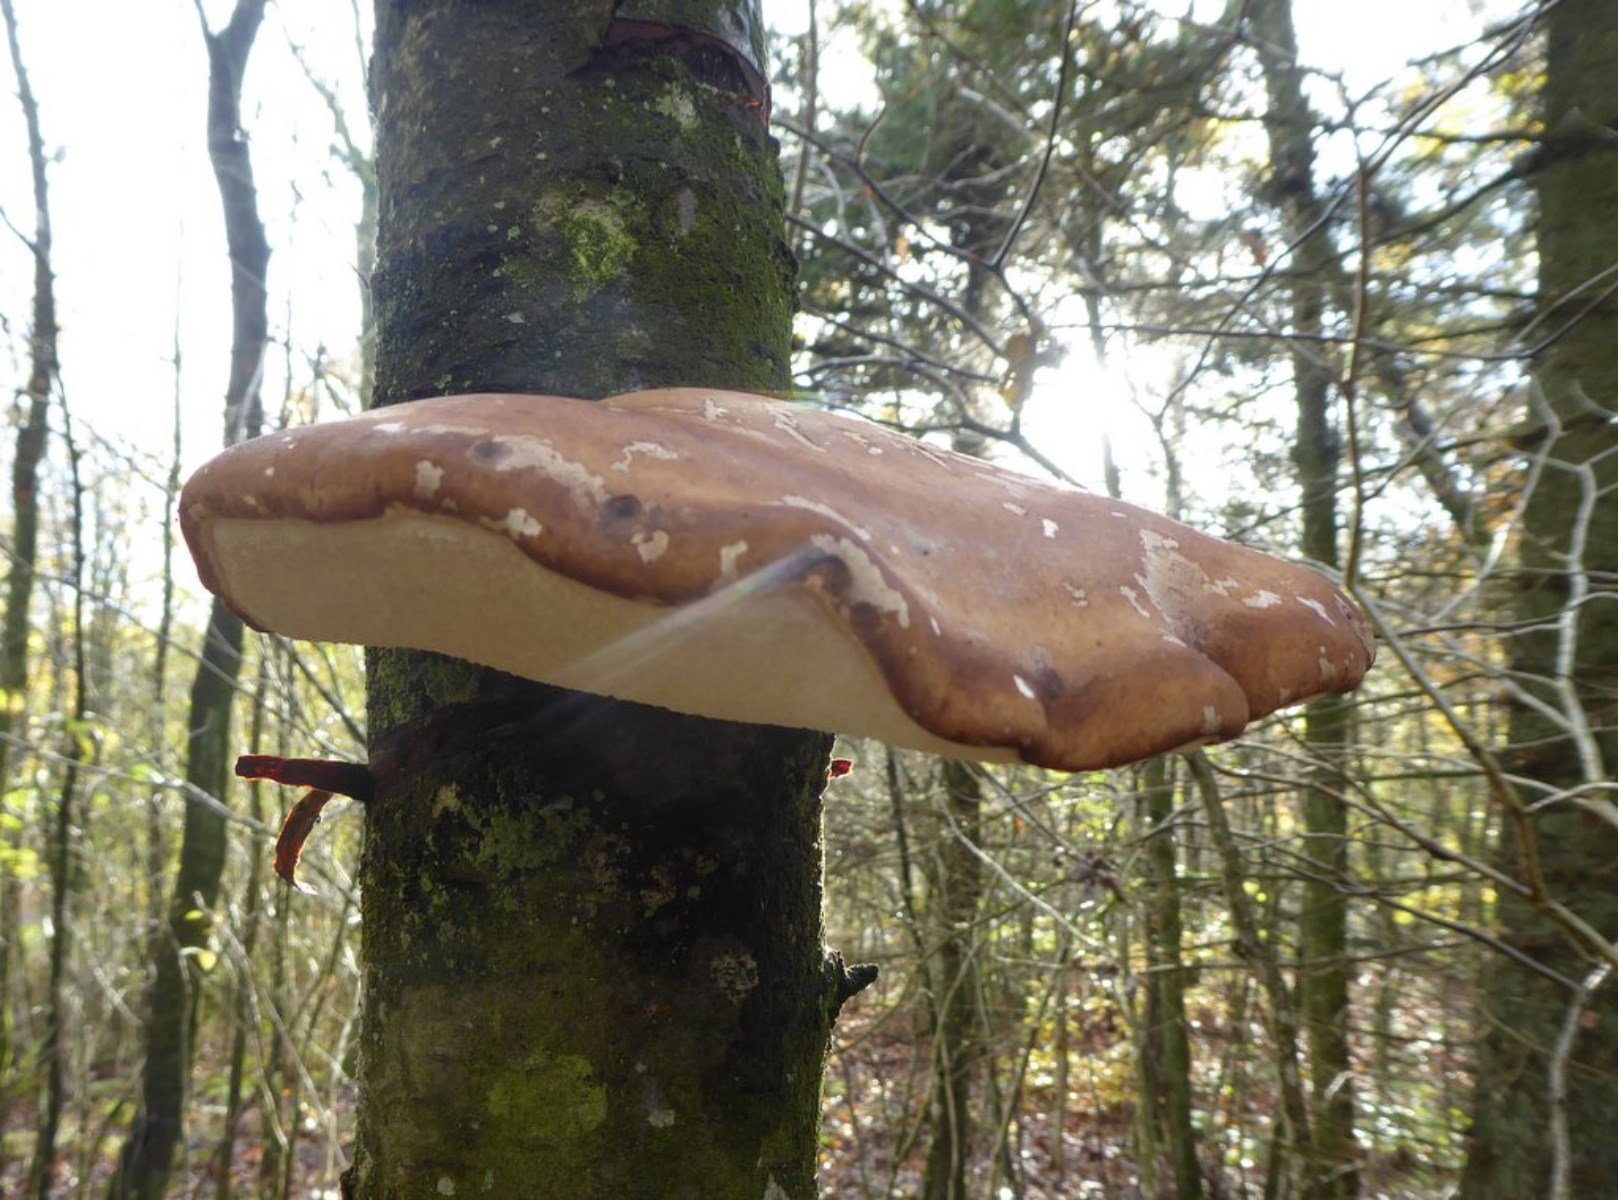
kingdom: Fungi
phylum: Basidiomycota
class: Agaricomycetes
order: Polyporales
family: Fomitopsidaceae
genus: Fomitopsis
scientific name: Fomitopsis betulina
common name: birkeporesvamp
